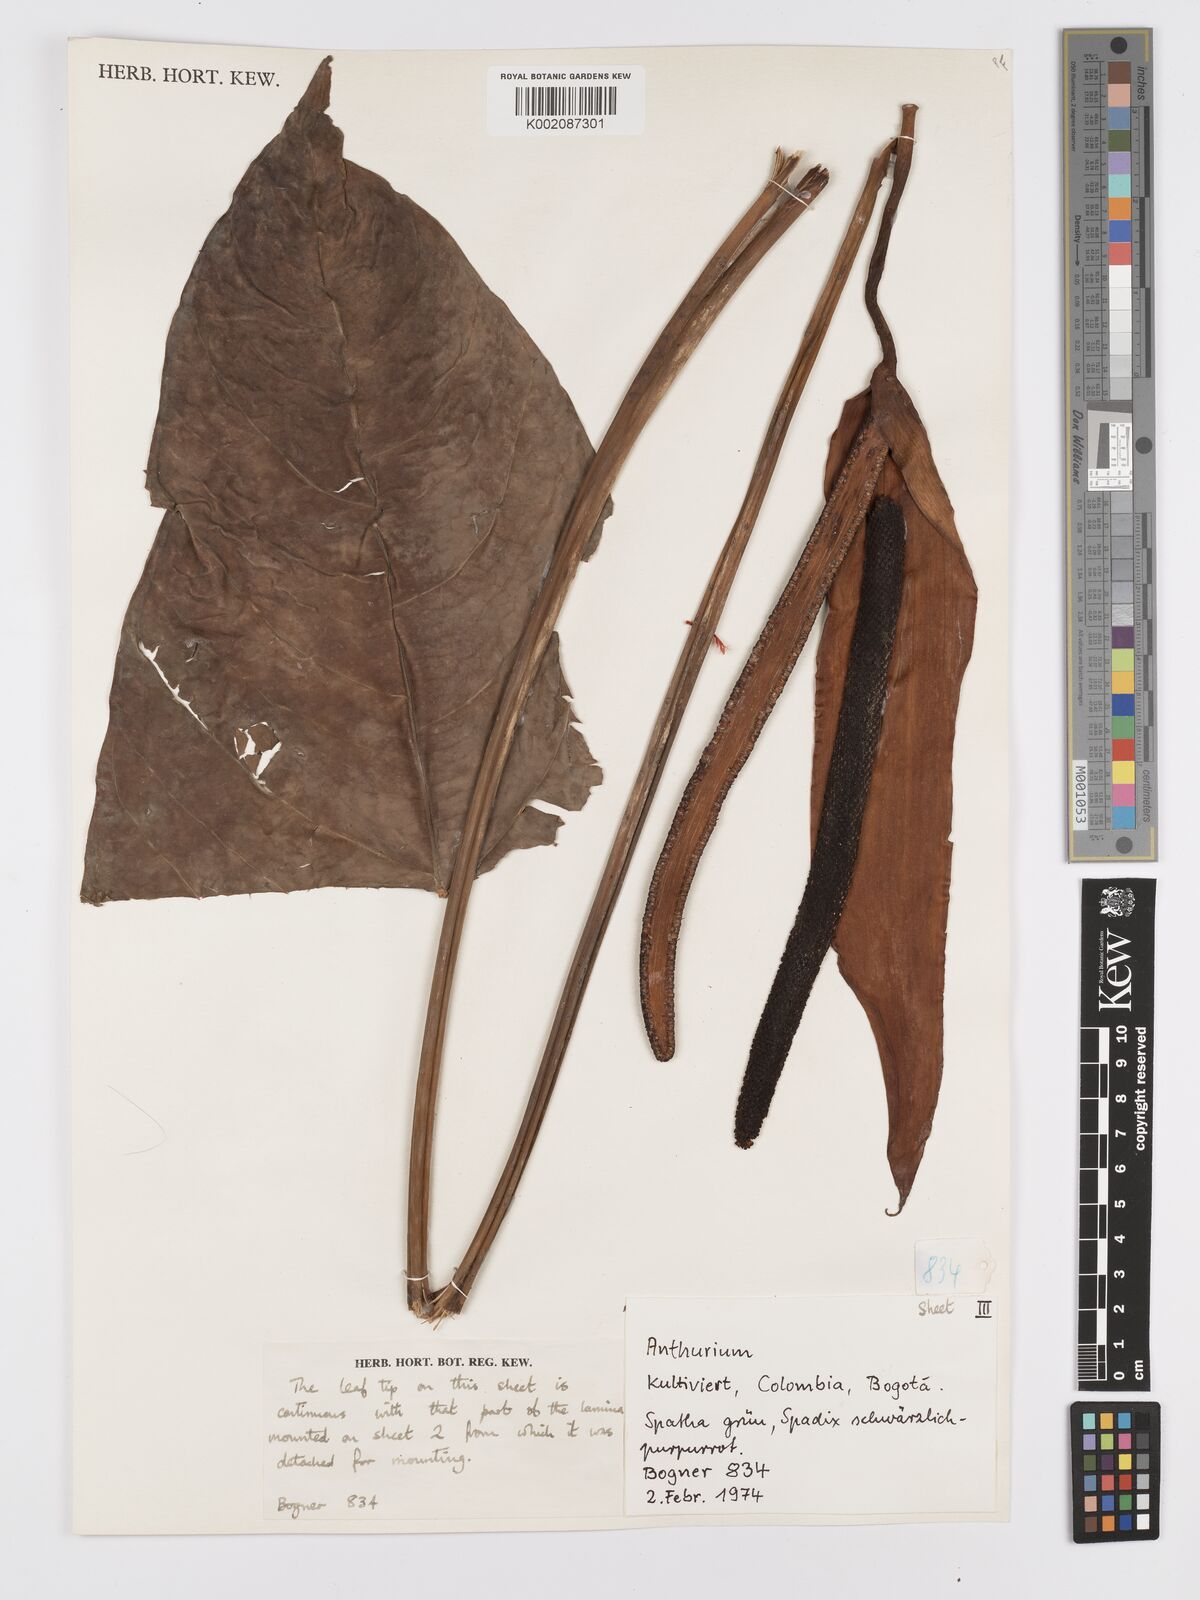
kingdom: Plantae
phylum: Tracheophyta
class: Liliopsida
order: Alismatales
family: Araceae
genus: Anthurium
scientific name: Anthurium
